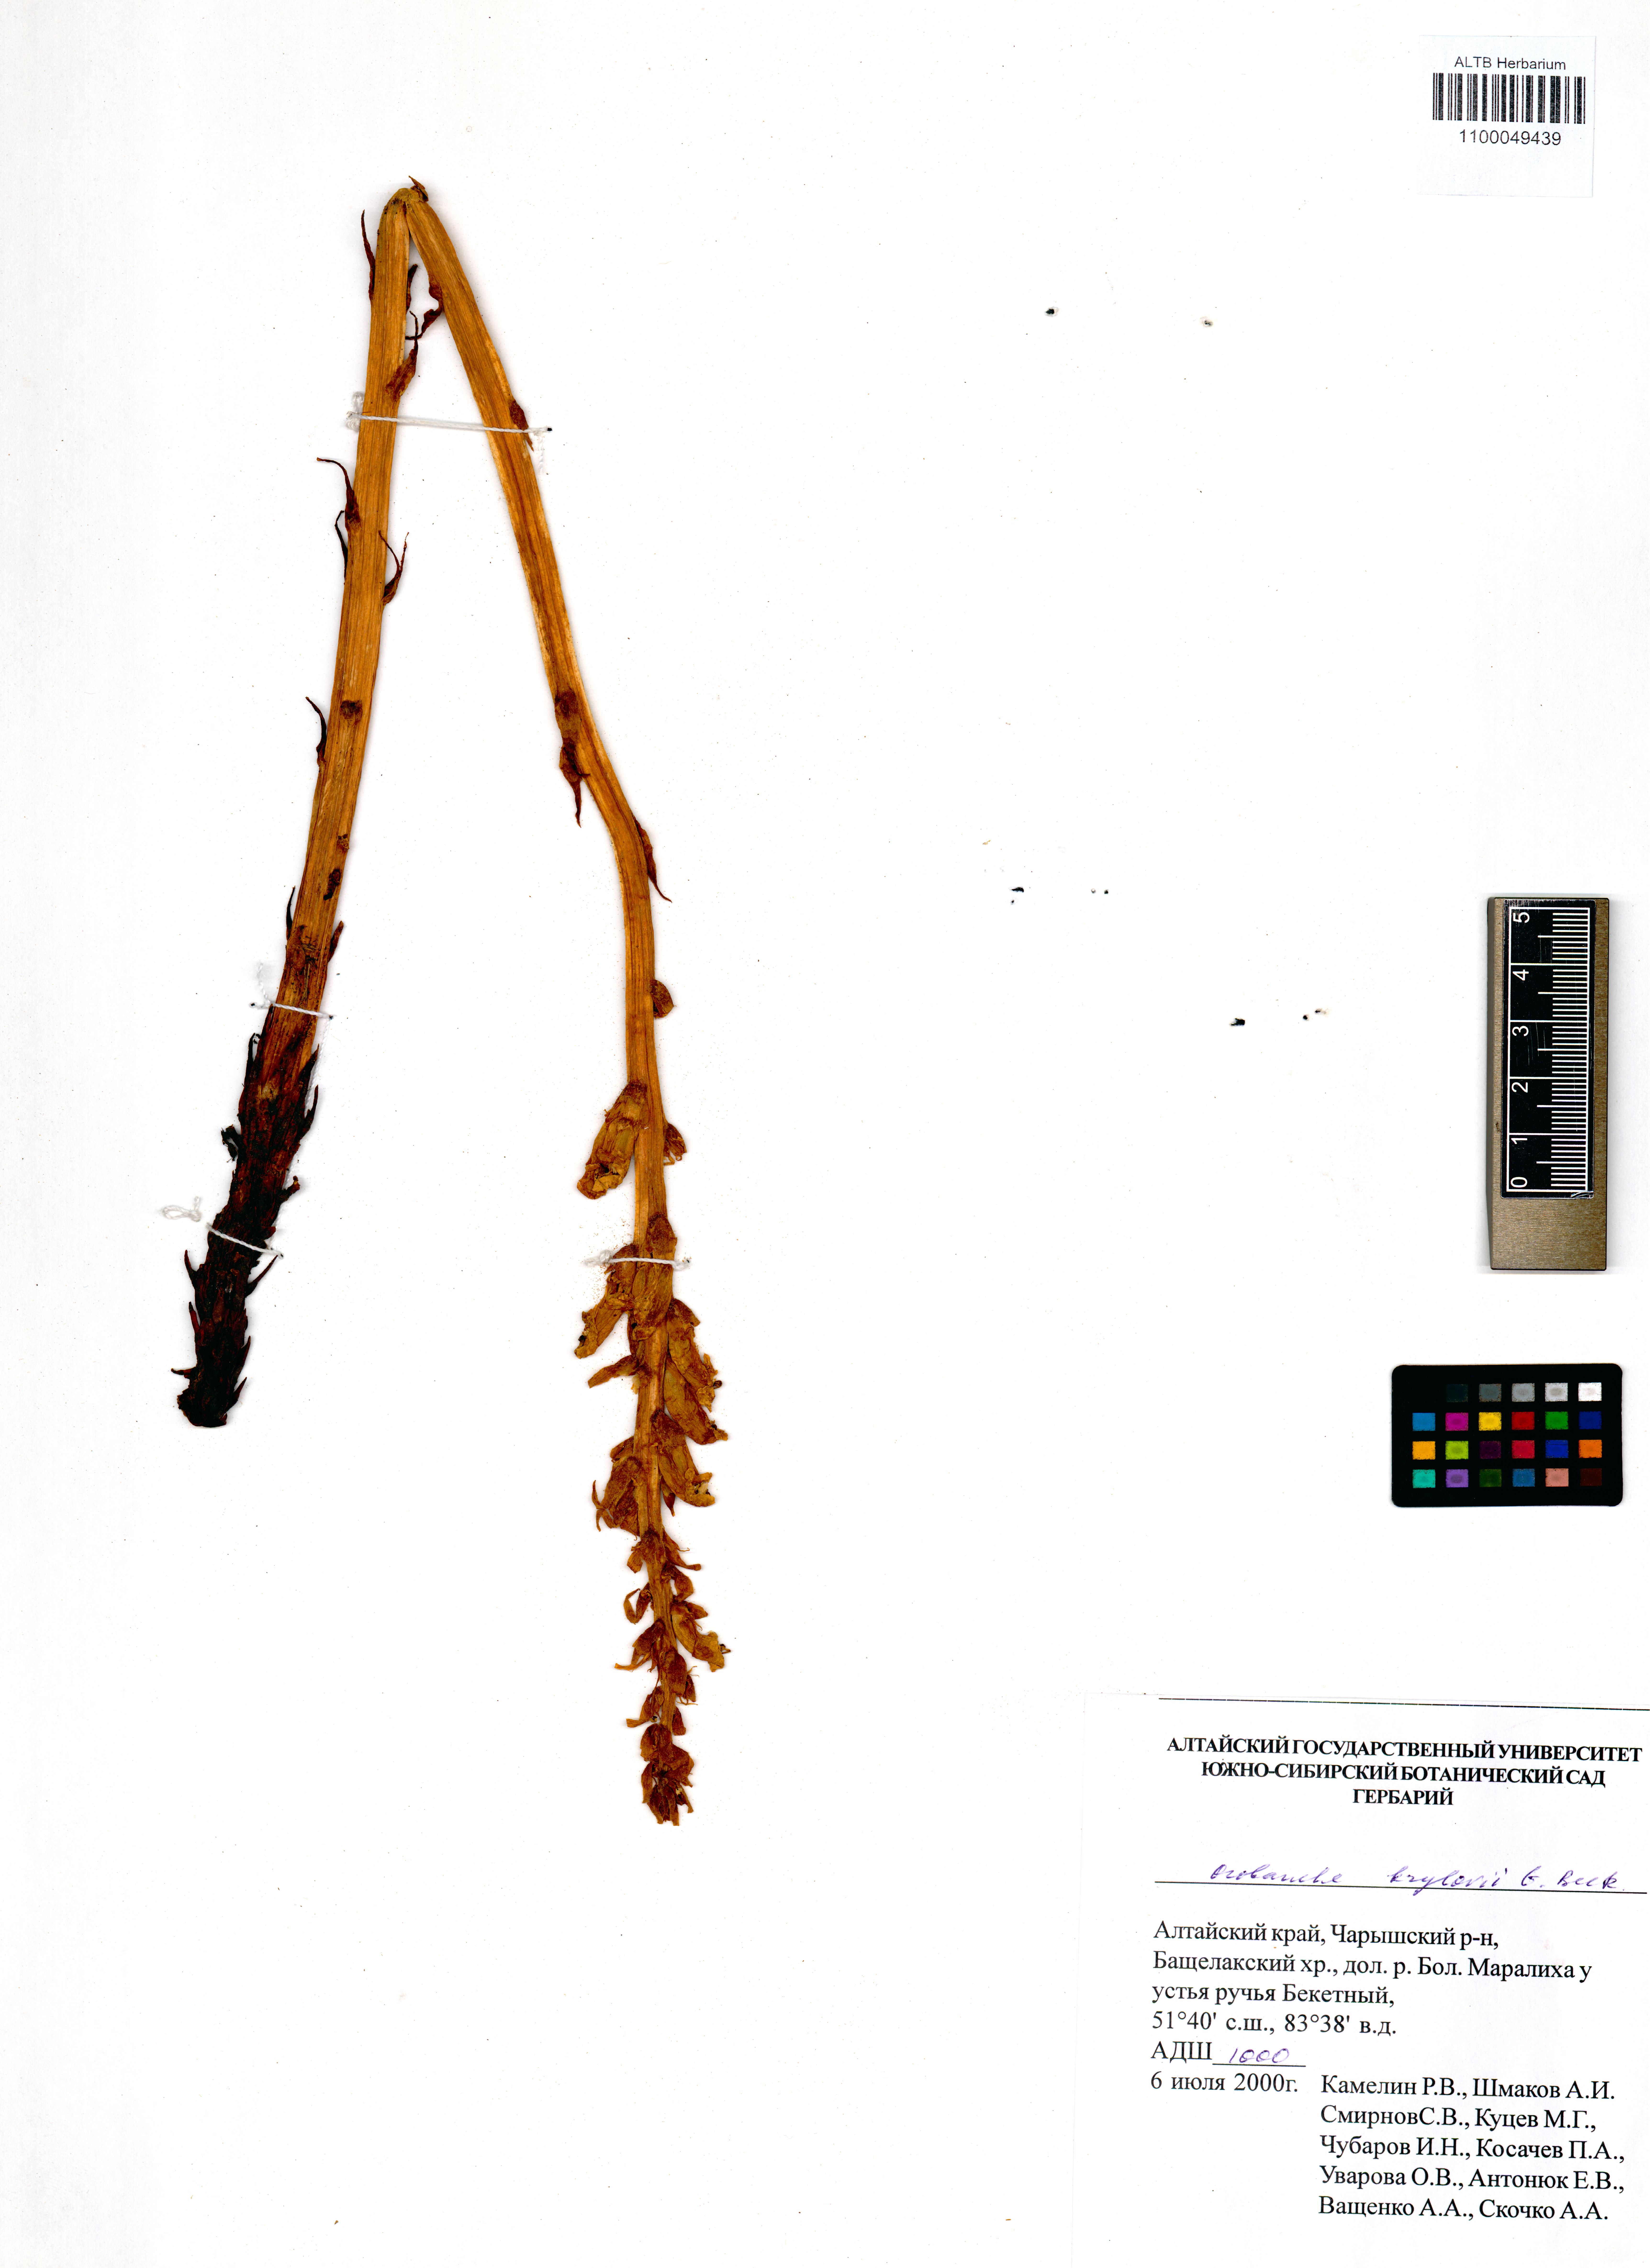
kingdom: Plantae
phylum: Tracheophyta
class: Magnoliopsida
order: Lamiales
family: Orobanchaceae
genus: Orobanche
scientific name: Orobanche krylowii
